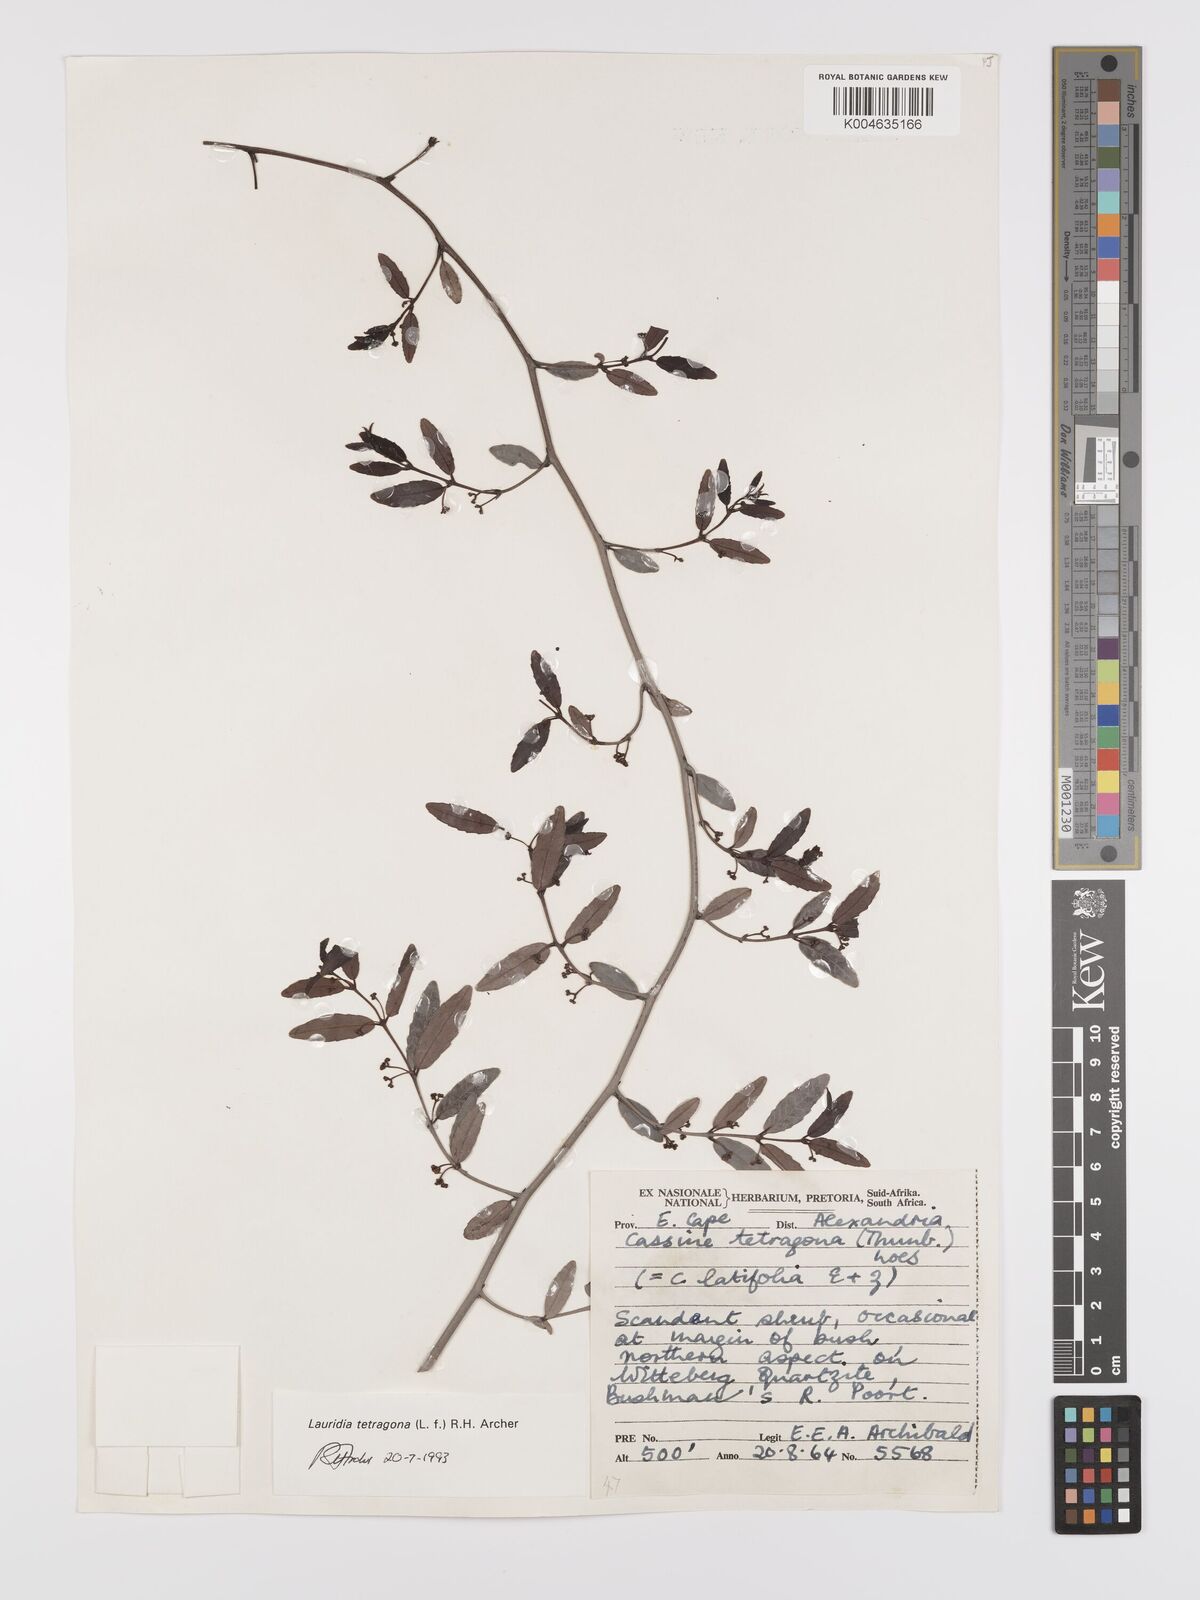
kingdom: Plantae
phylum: Tracheophyta
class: Magnoliopsida
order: Celastrales
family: Celastraceae
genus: Lauridia
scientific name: Lauridia tetragona
